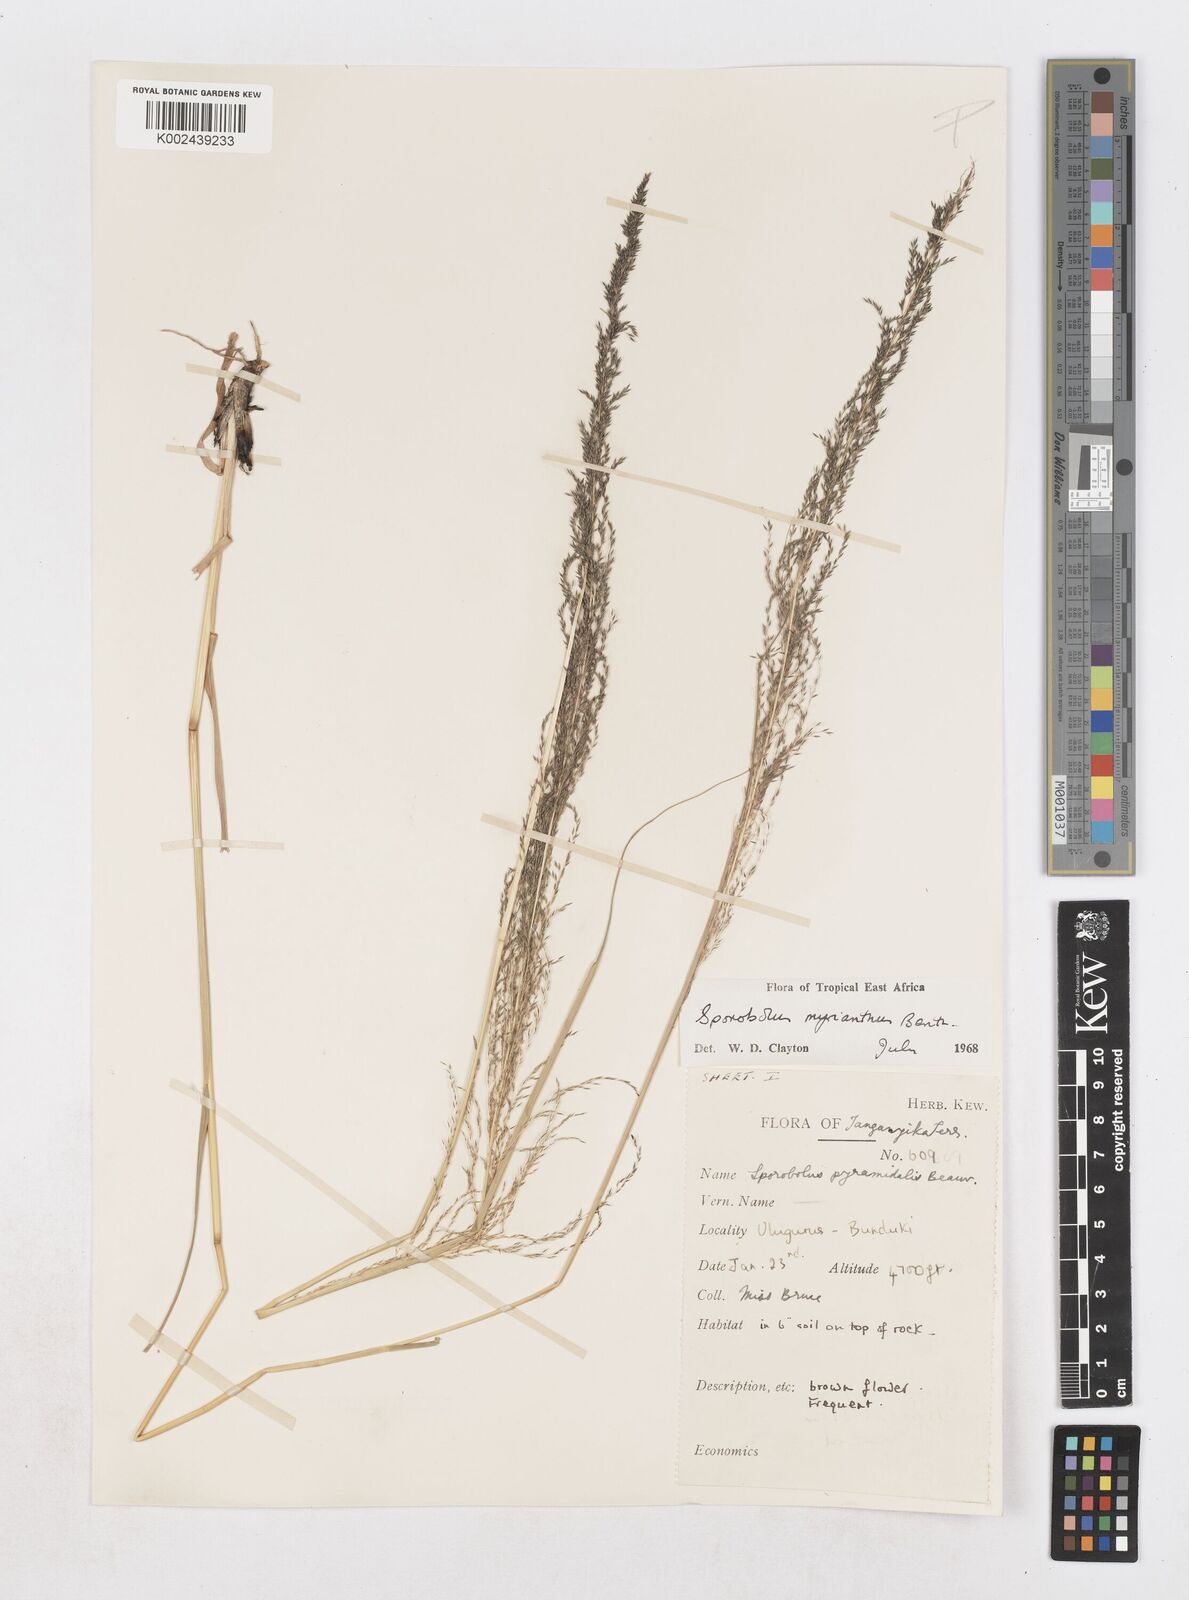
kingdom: Plantae
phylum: Tracheophyta
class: Liliopsida
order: Poales
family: Poaceae
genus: Sporobolus
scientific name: Sporobolus myrianthus
